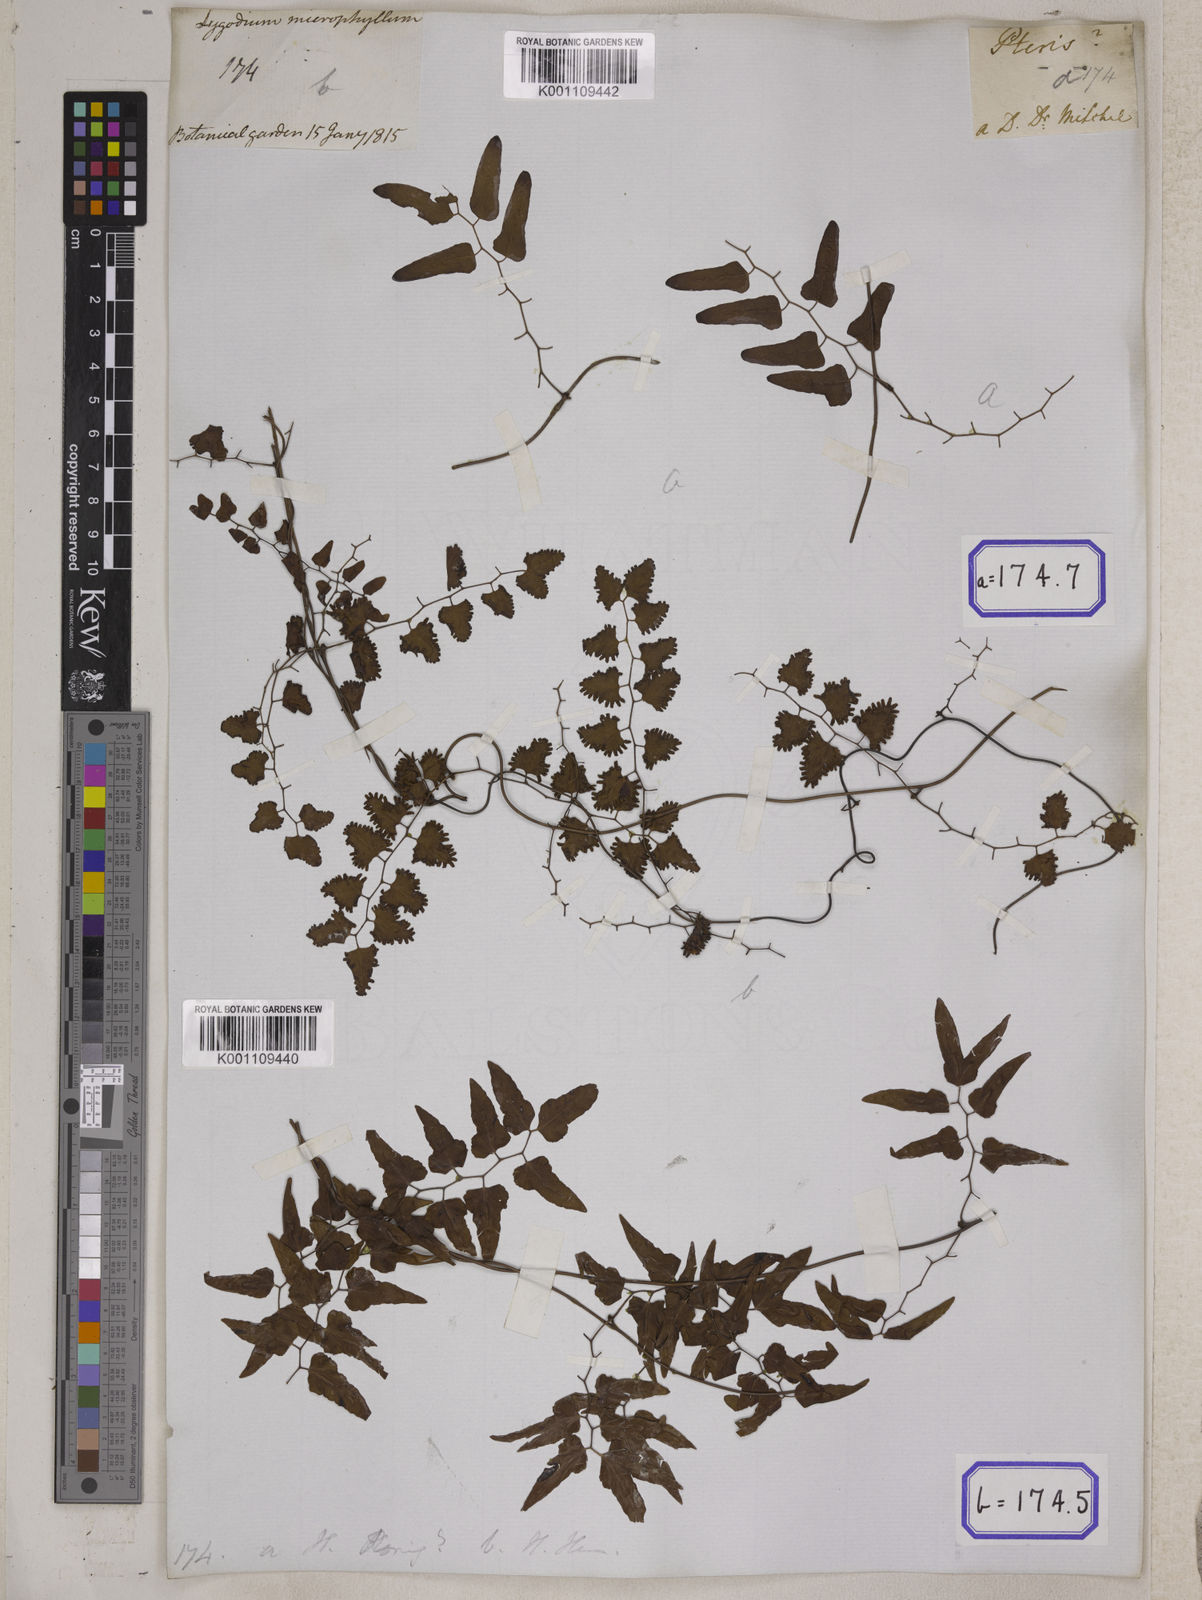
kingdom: Plantae
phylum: Tracheophyta
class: Polypodiopsida
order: Schizaeales
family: Lygodiaceae
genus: Lygodium
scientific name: Lygodium
